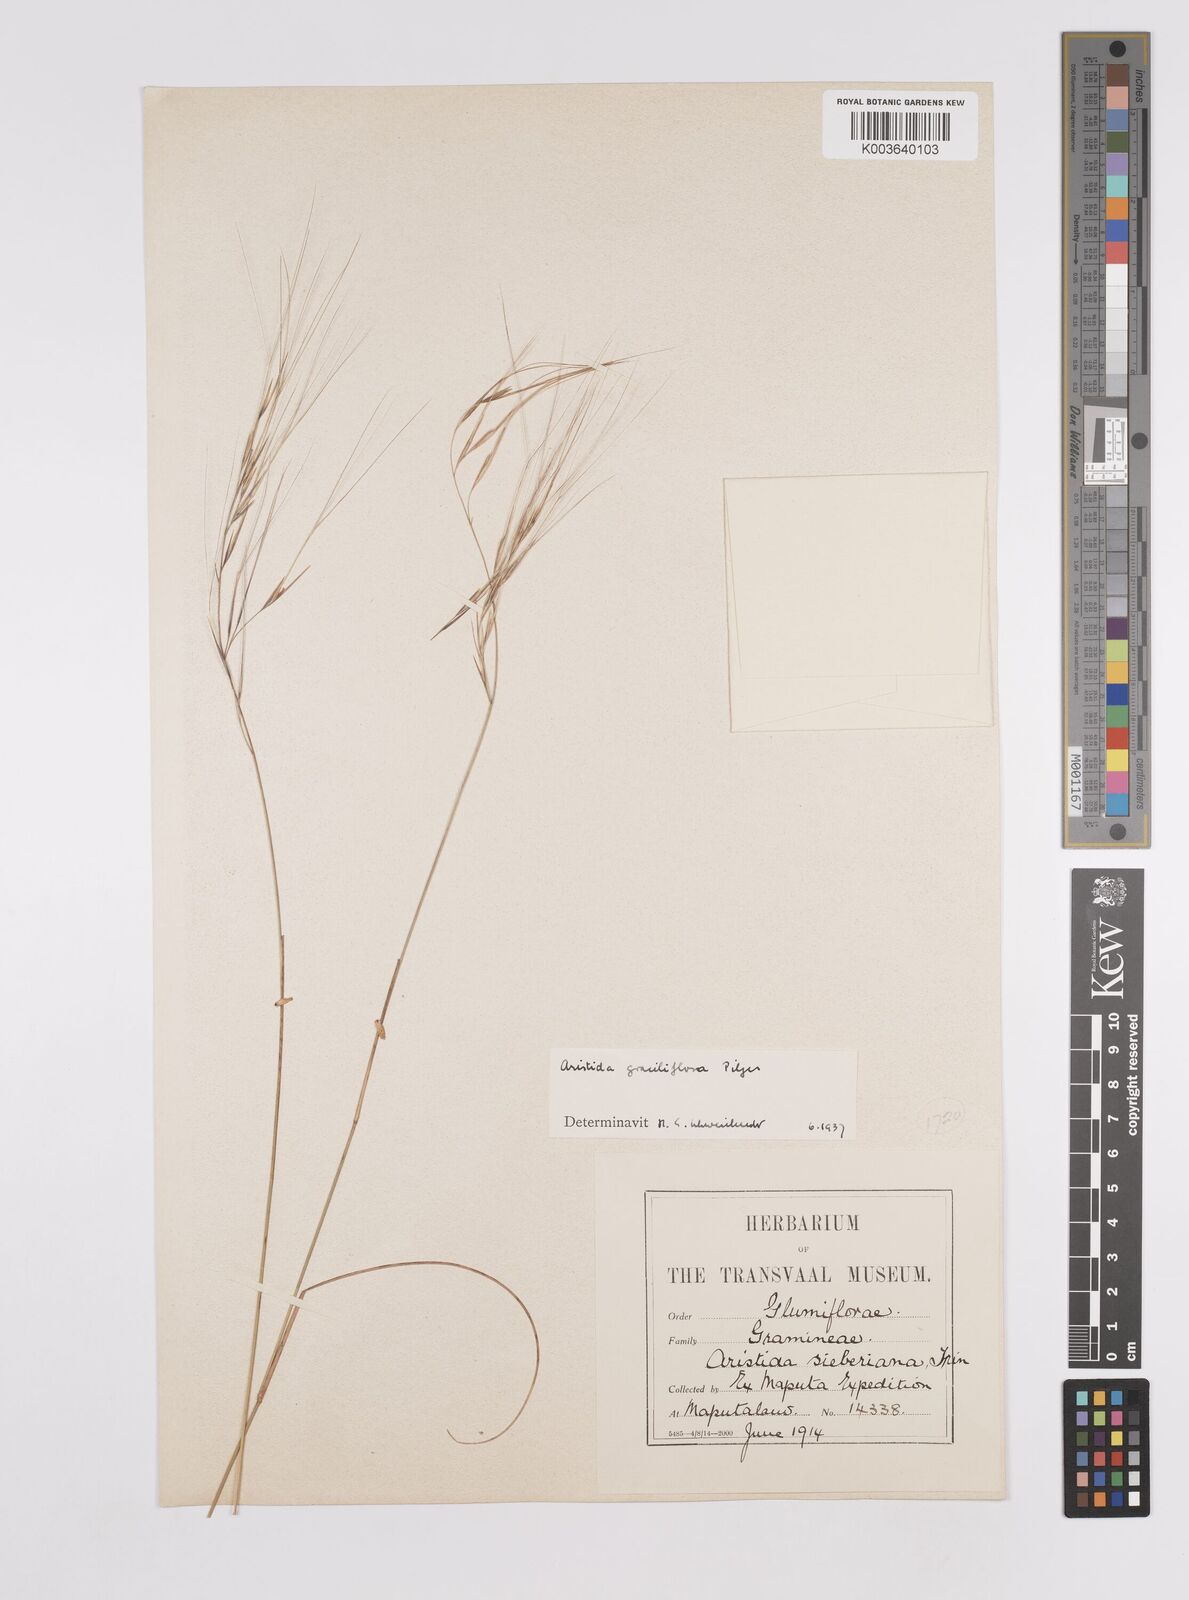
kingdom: Plantae
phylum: Tracheophyta
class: Liliopsida
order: Poales
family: Poaceae
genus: Aristida
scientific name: Aristida stipitata
